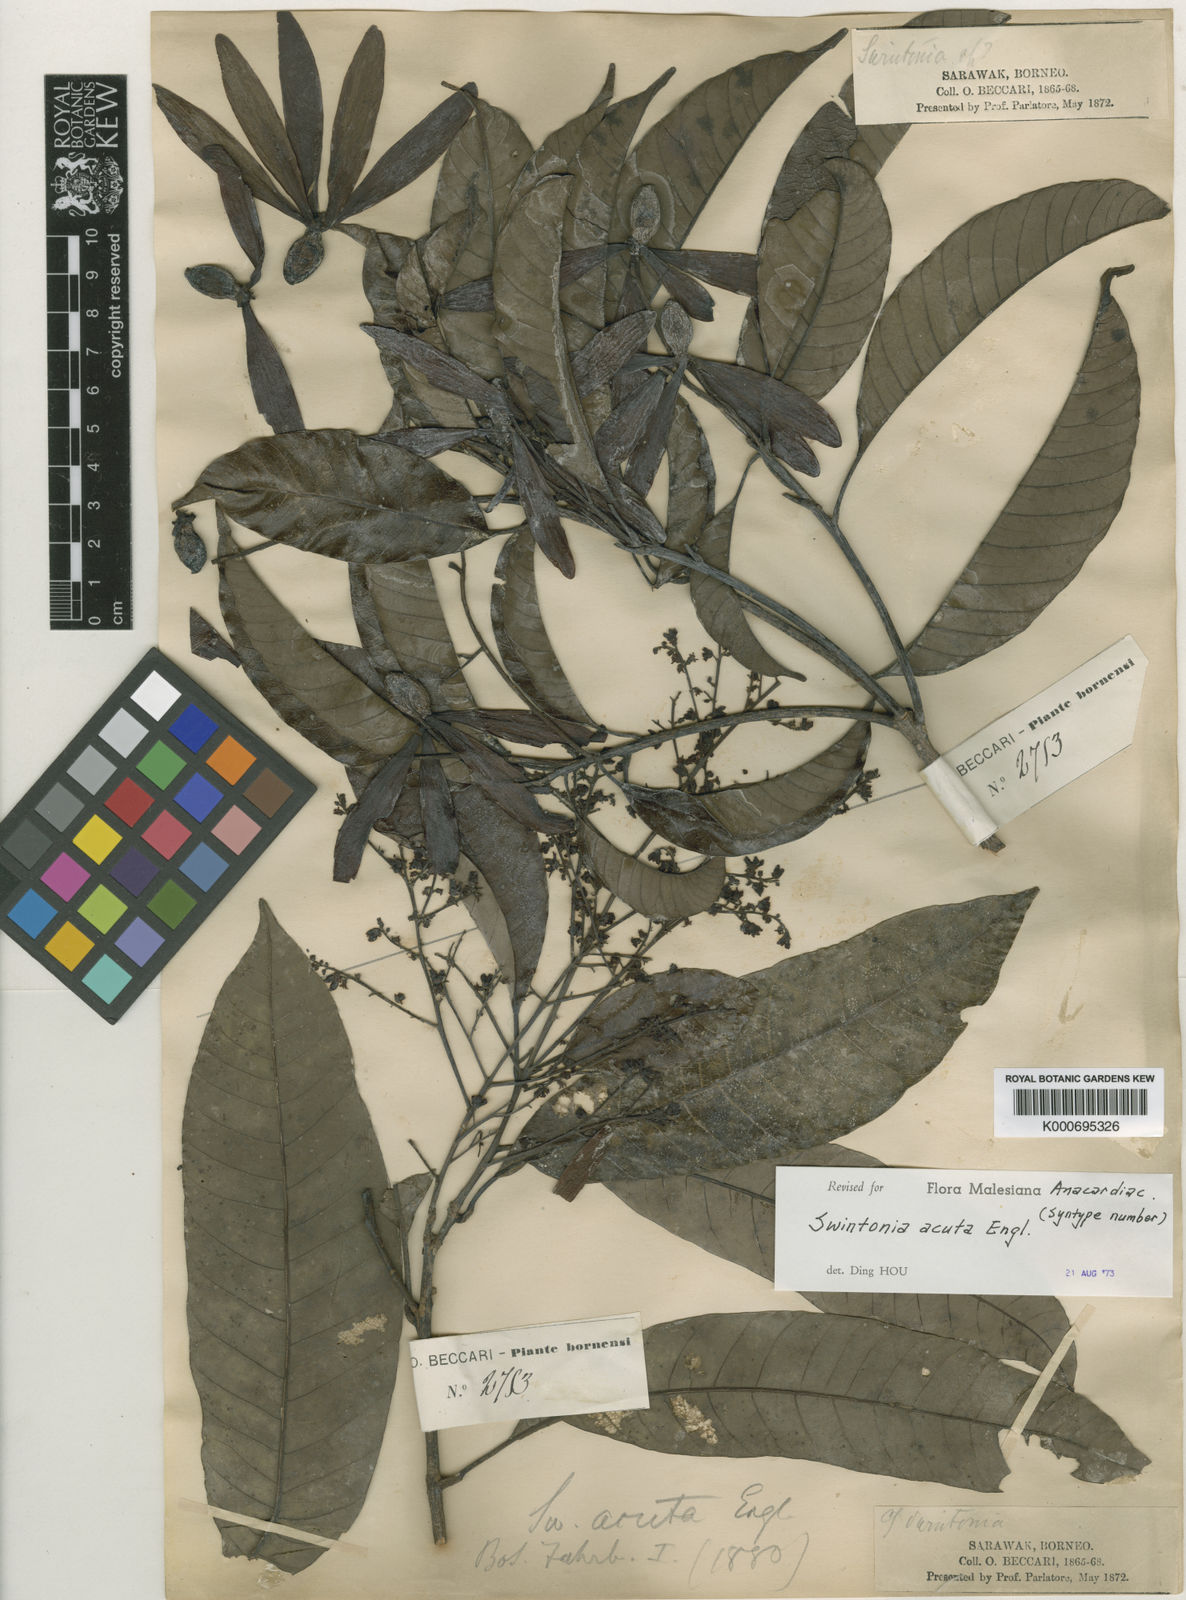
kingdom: Plantae
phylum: Tracheophyta
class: Magnoliopsida
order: Sapindales
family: Anacardiaceae
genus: Swintonia
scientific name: Swintonia acuta
